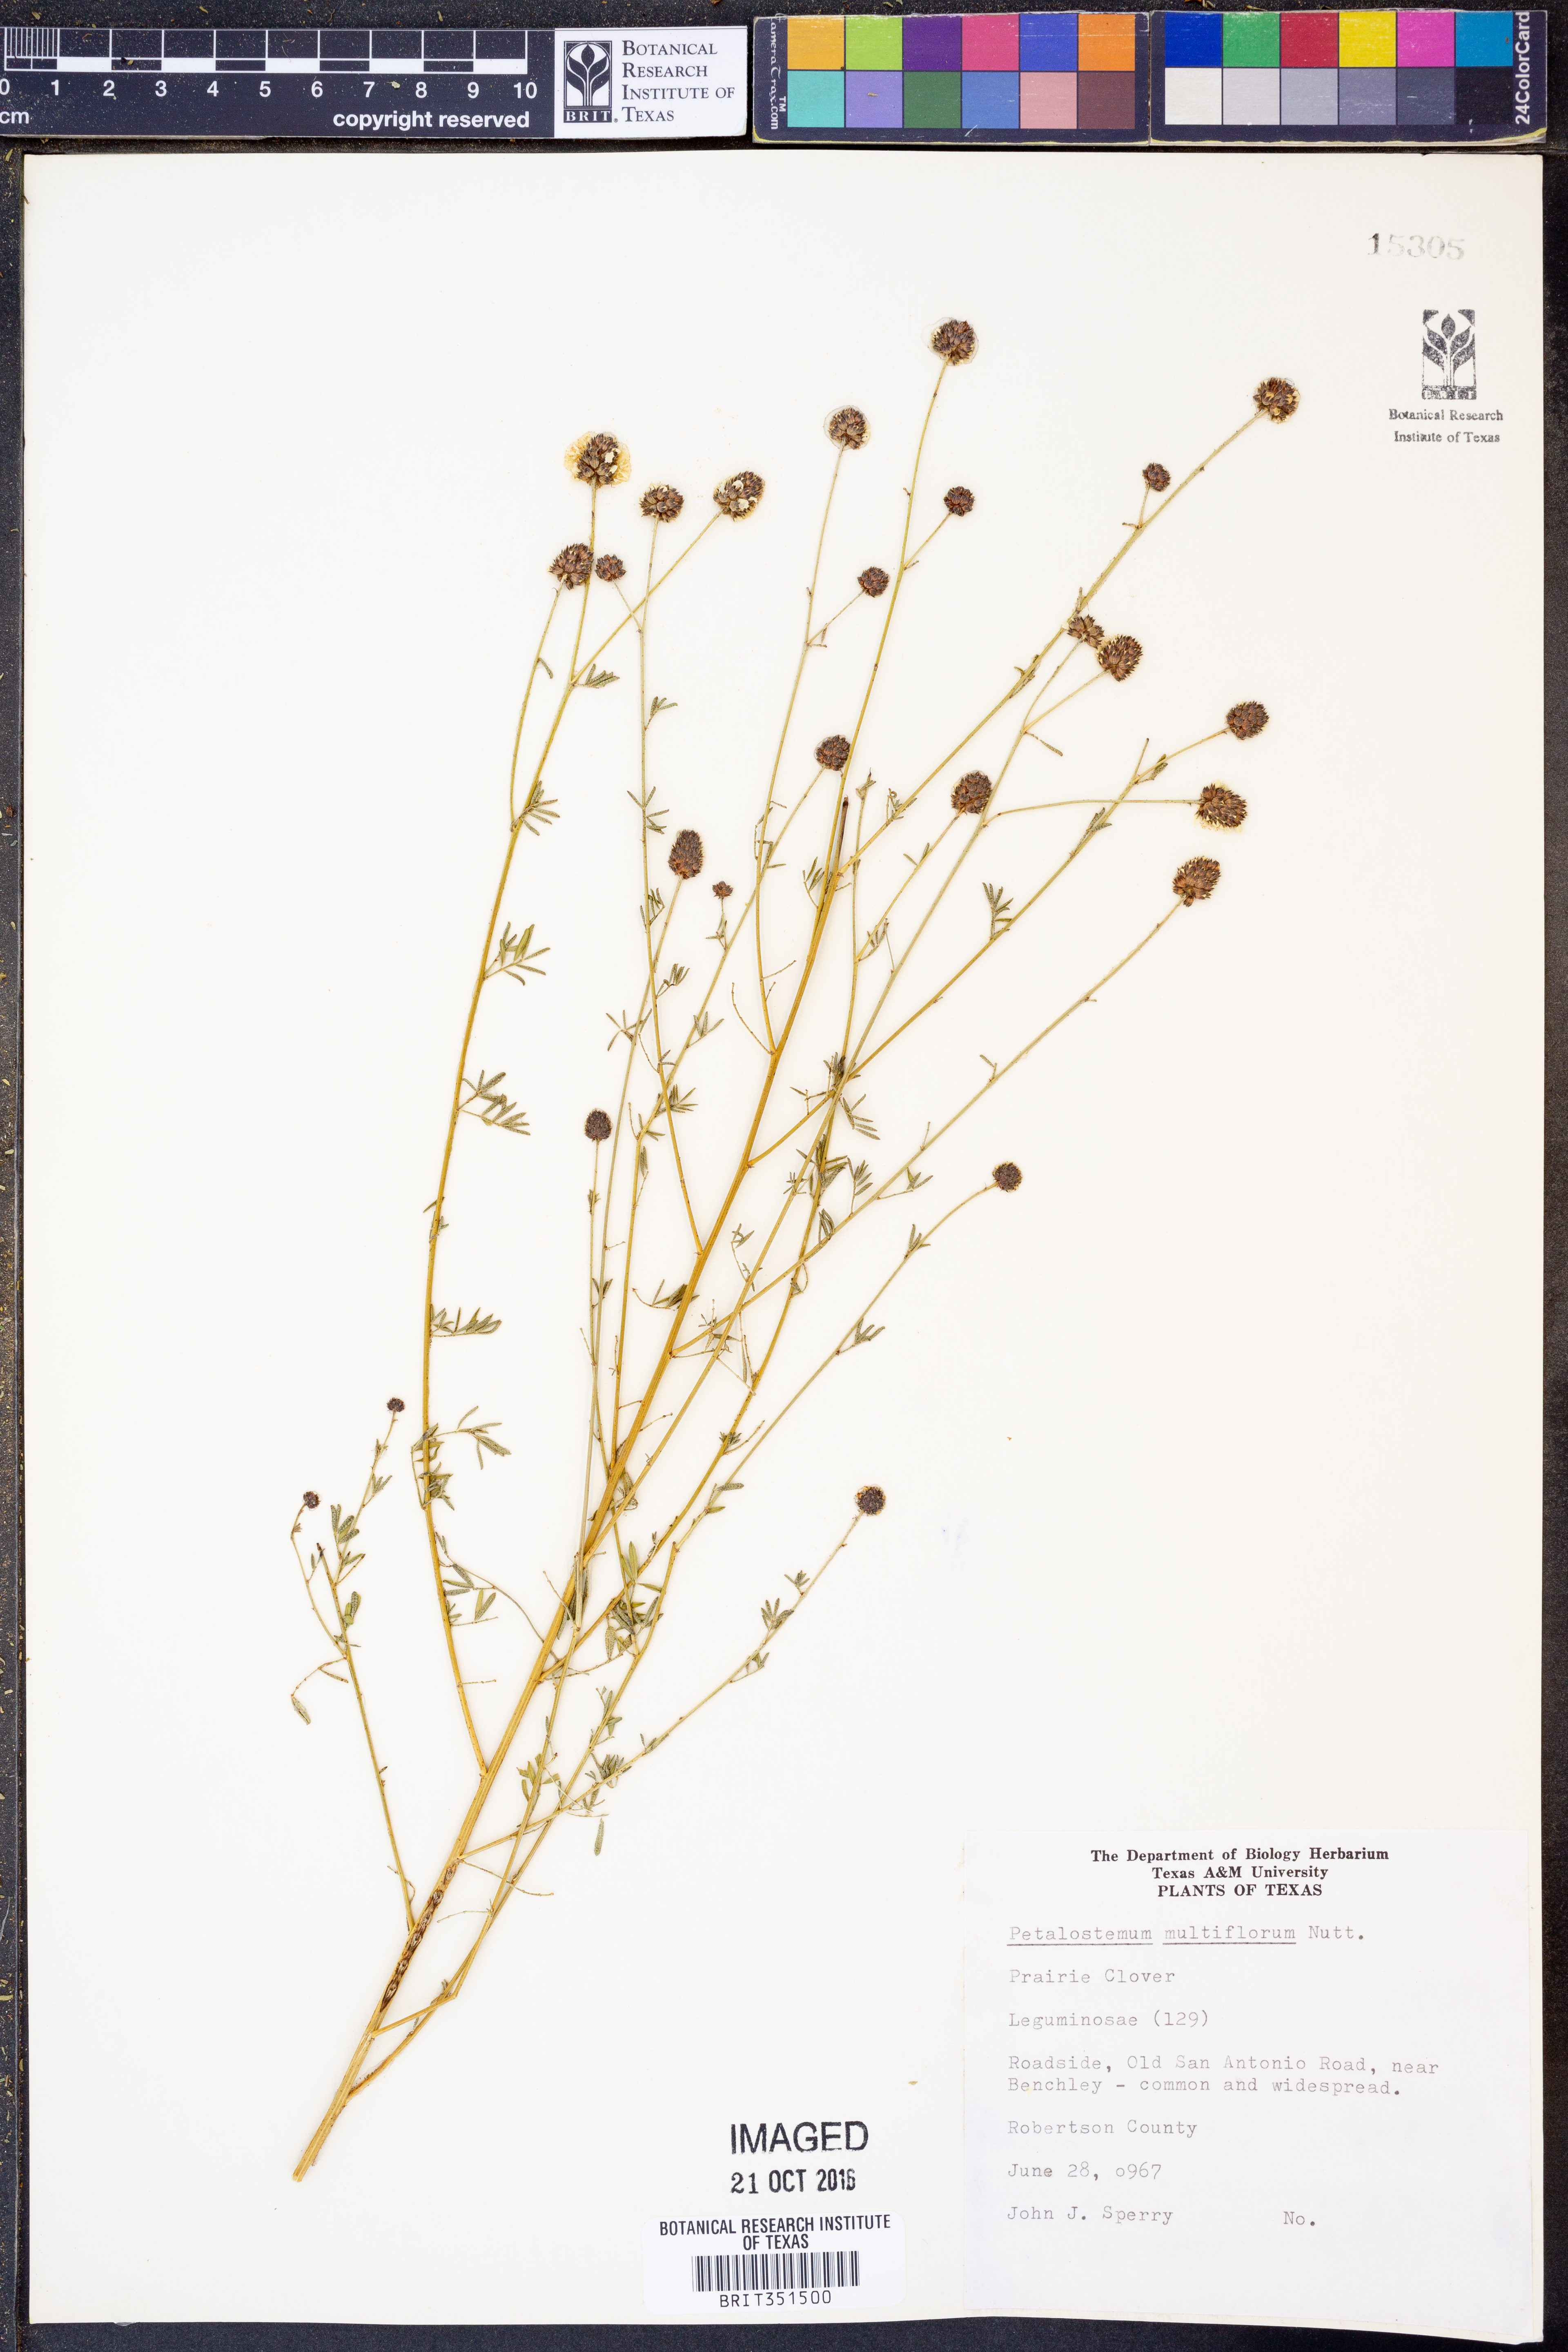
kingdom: Plantae
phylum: Tracheophyta
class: Magnoliopsida
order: Fabales
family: Fabaceae
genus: Dalea
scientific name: Dalea multiflora
